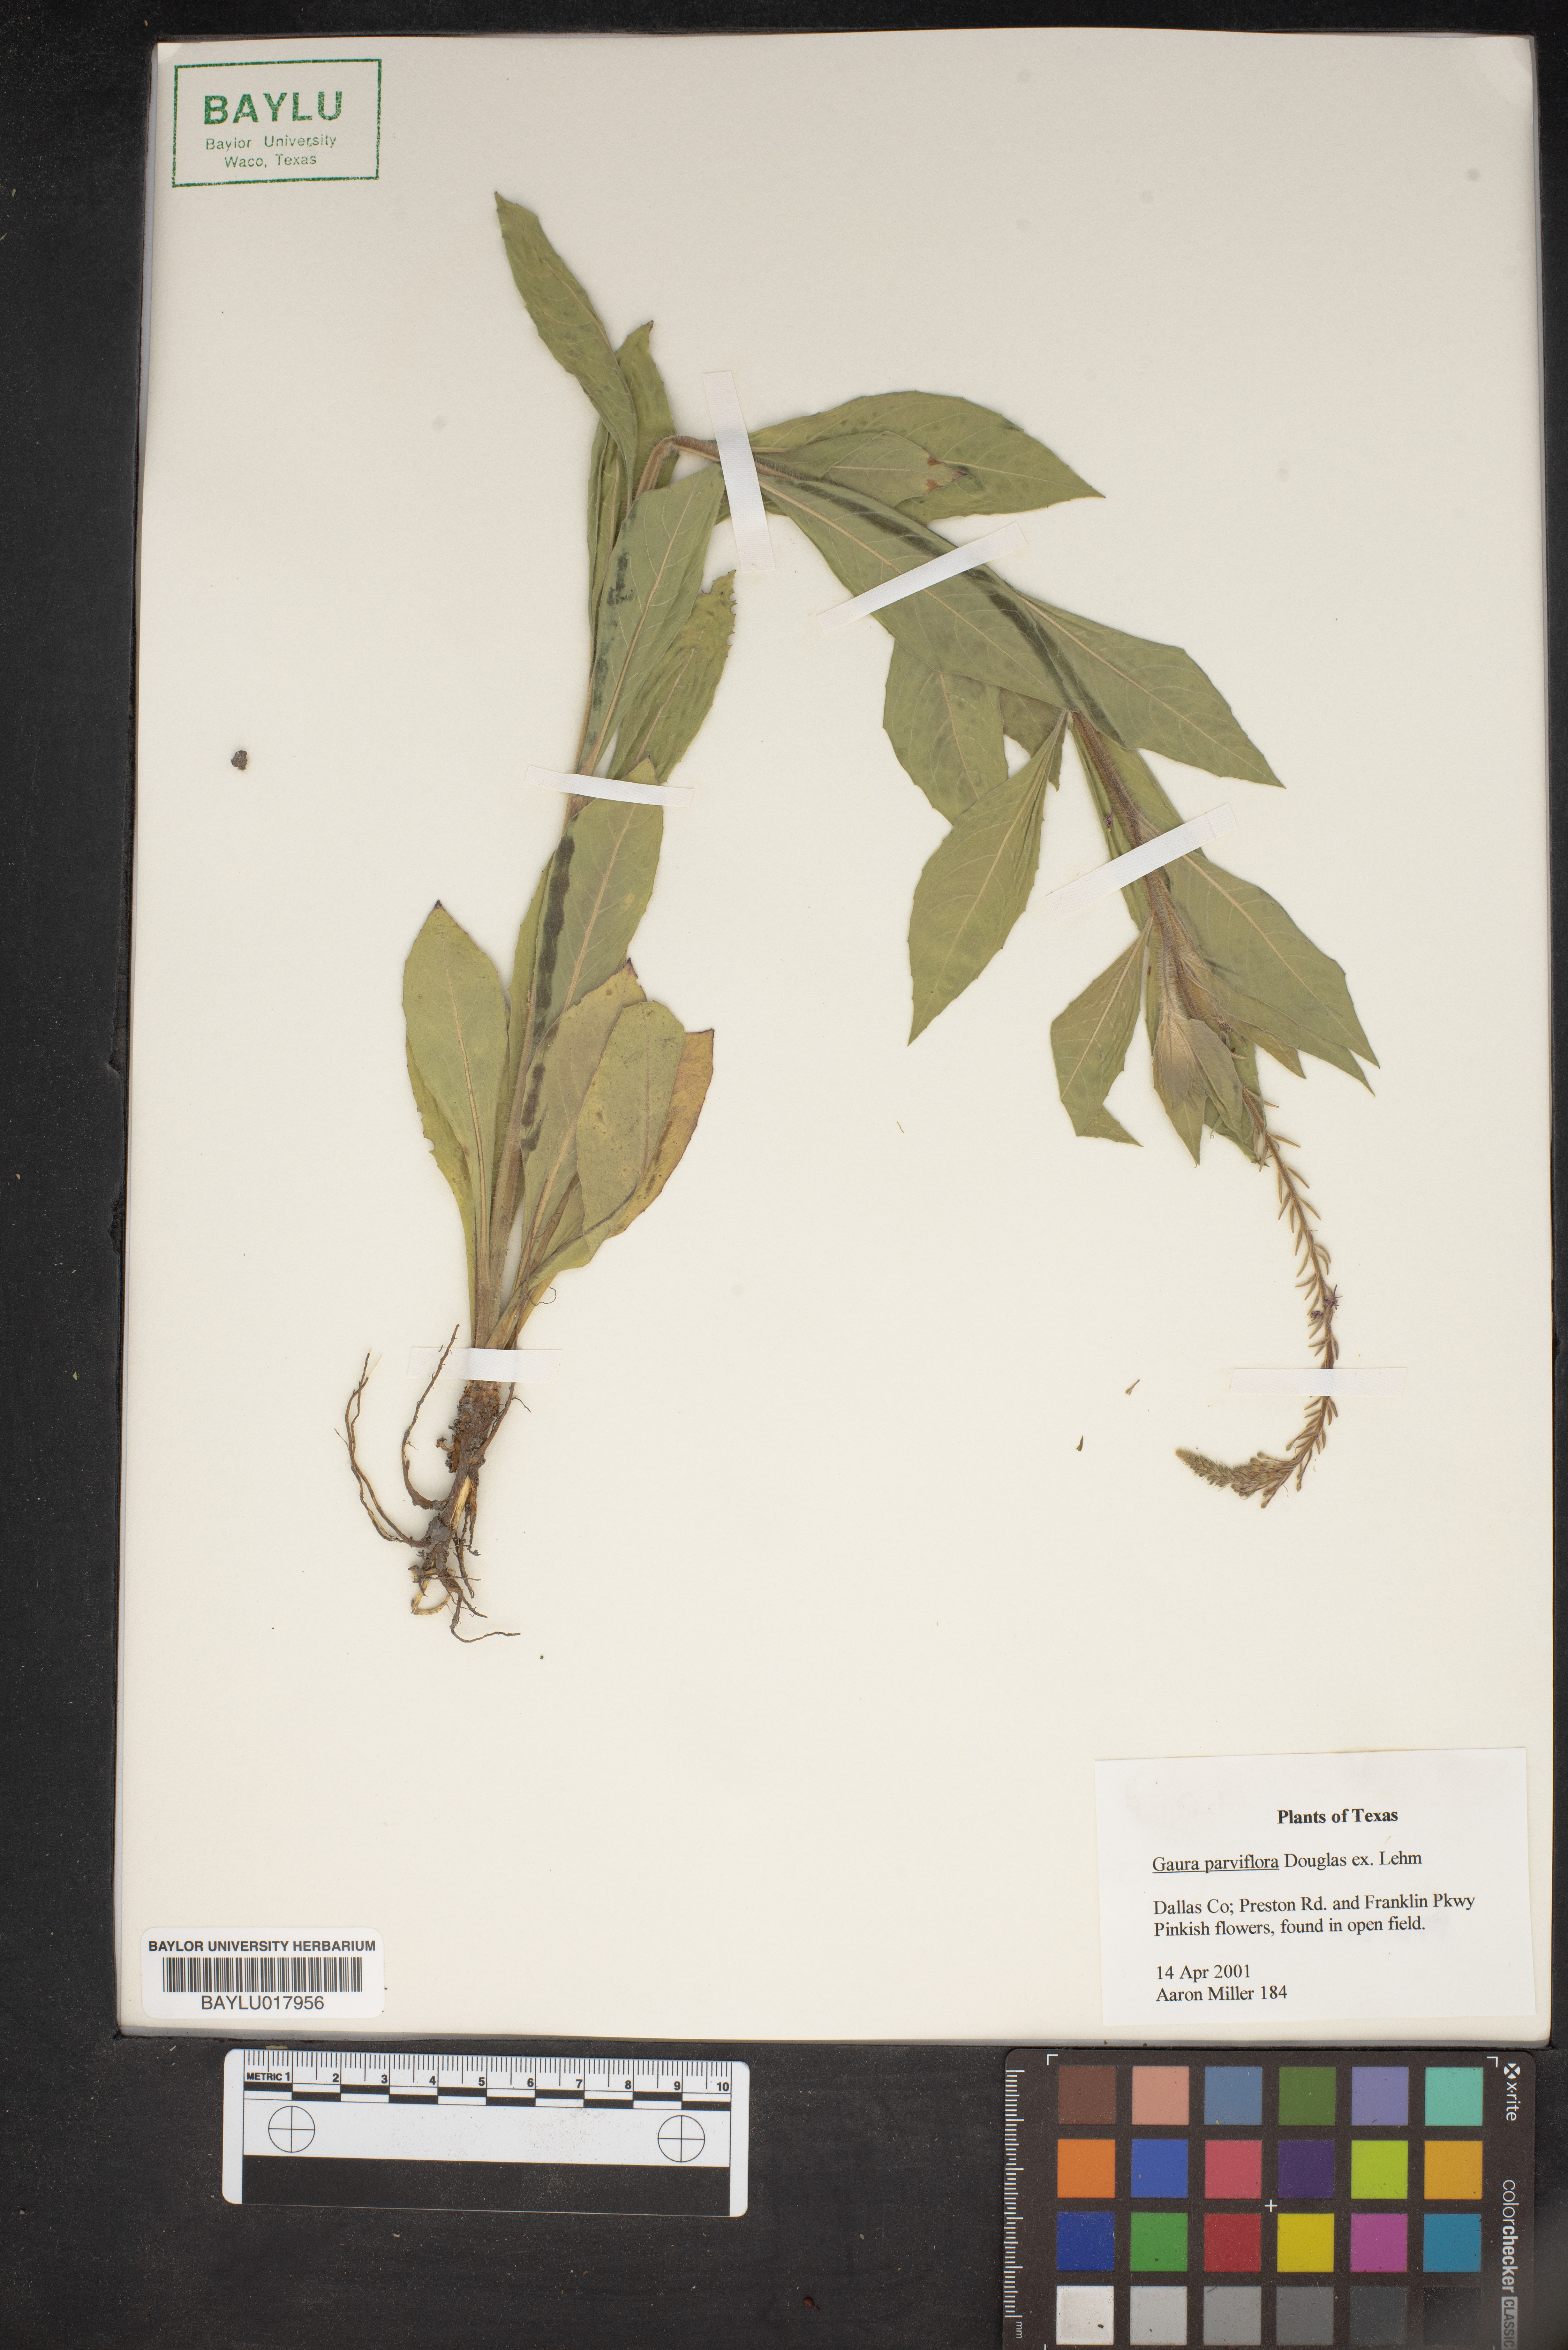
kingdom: Plantae
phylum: Tracheophyta
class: Magnoliopsida
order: Myrtales
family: Onagraceae
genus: Oenothera
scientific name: Oenothera curtiflora
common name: Velvetweed
